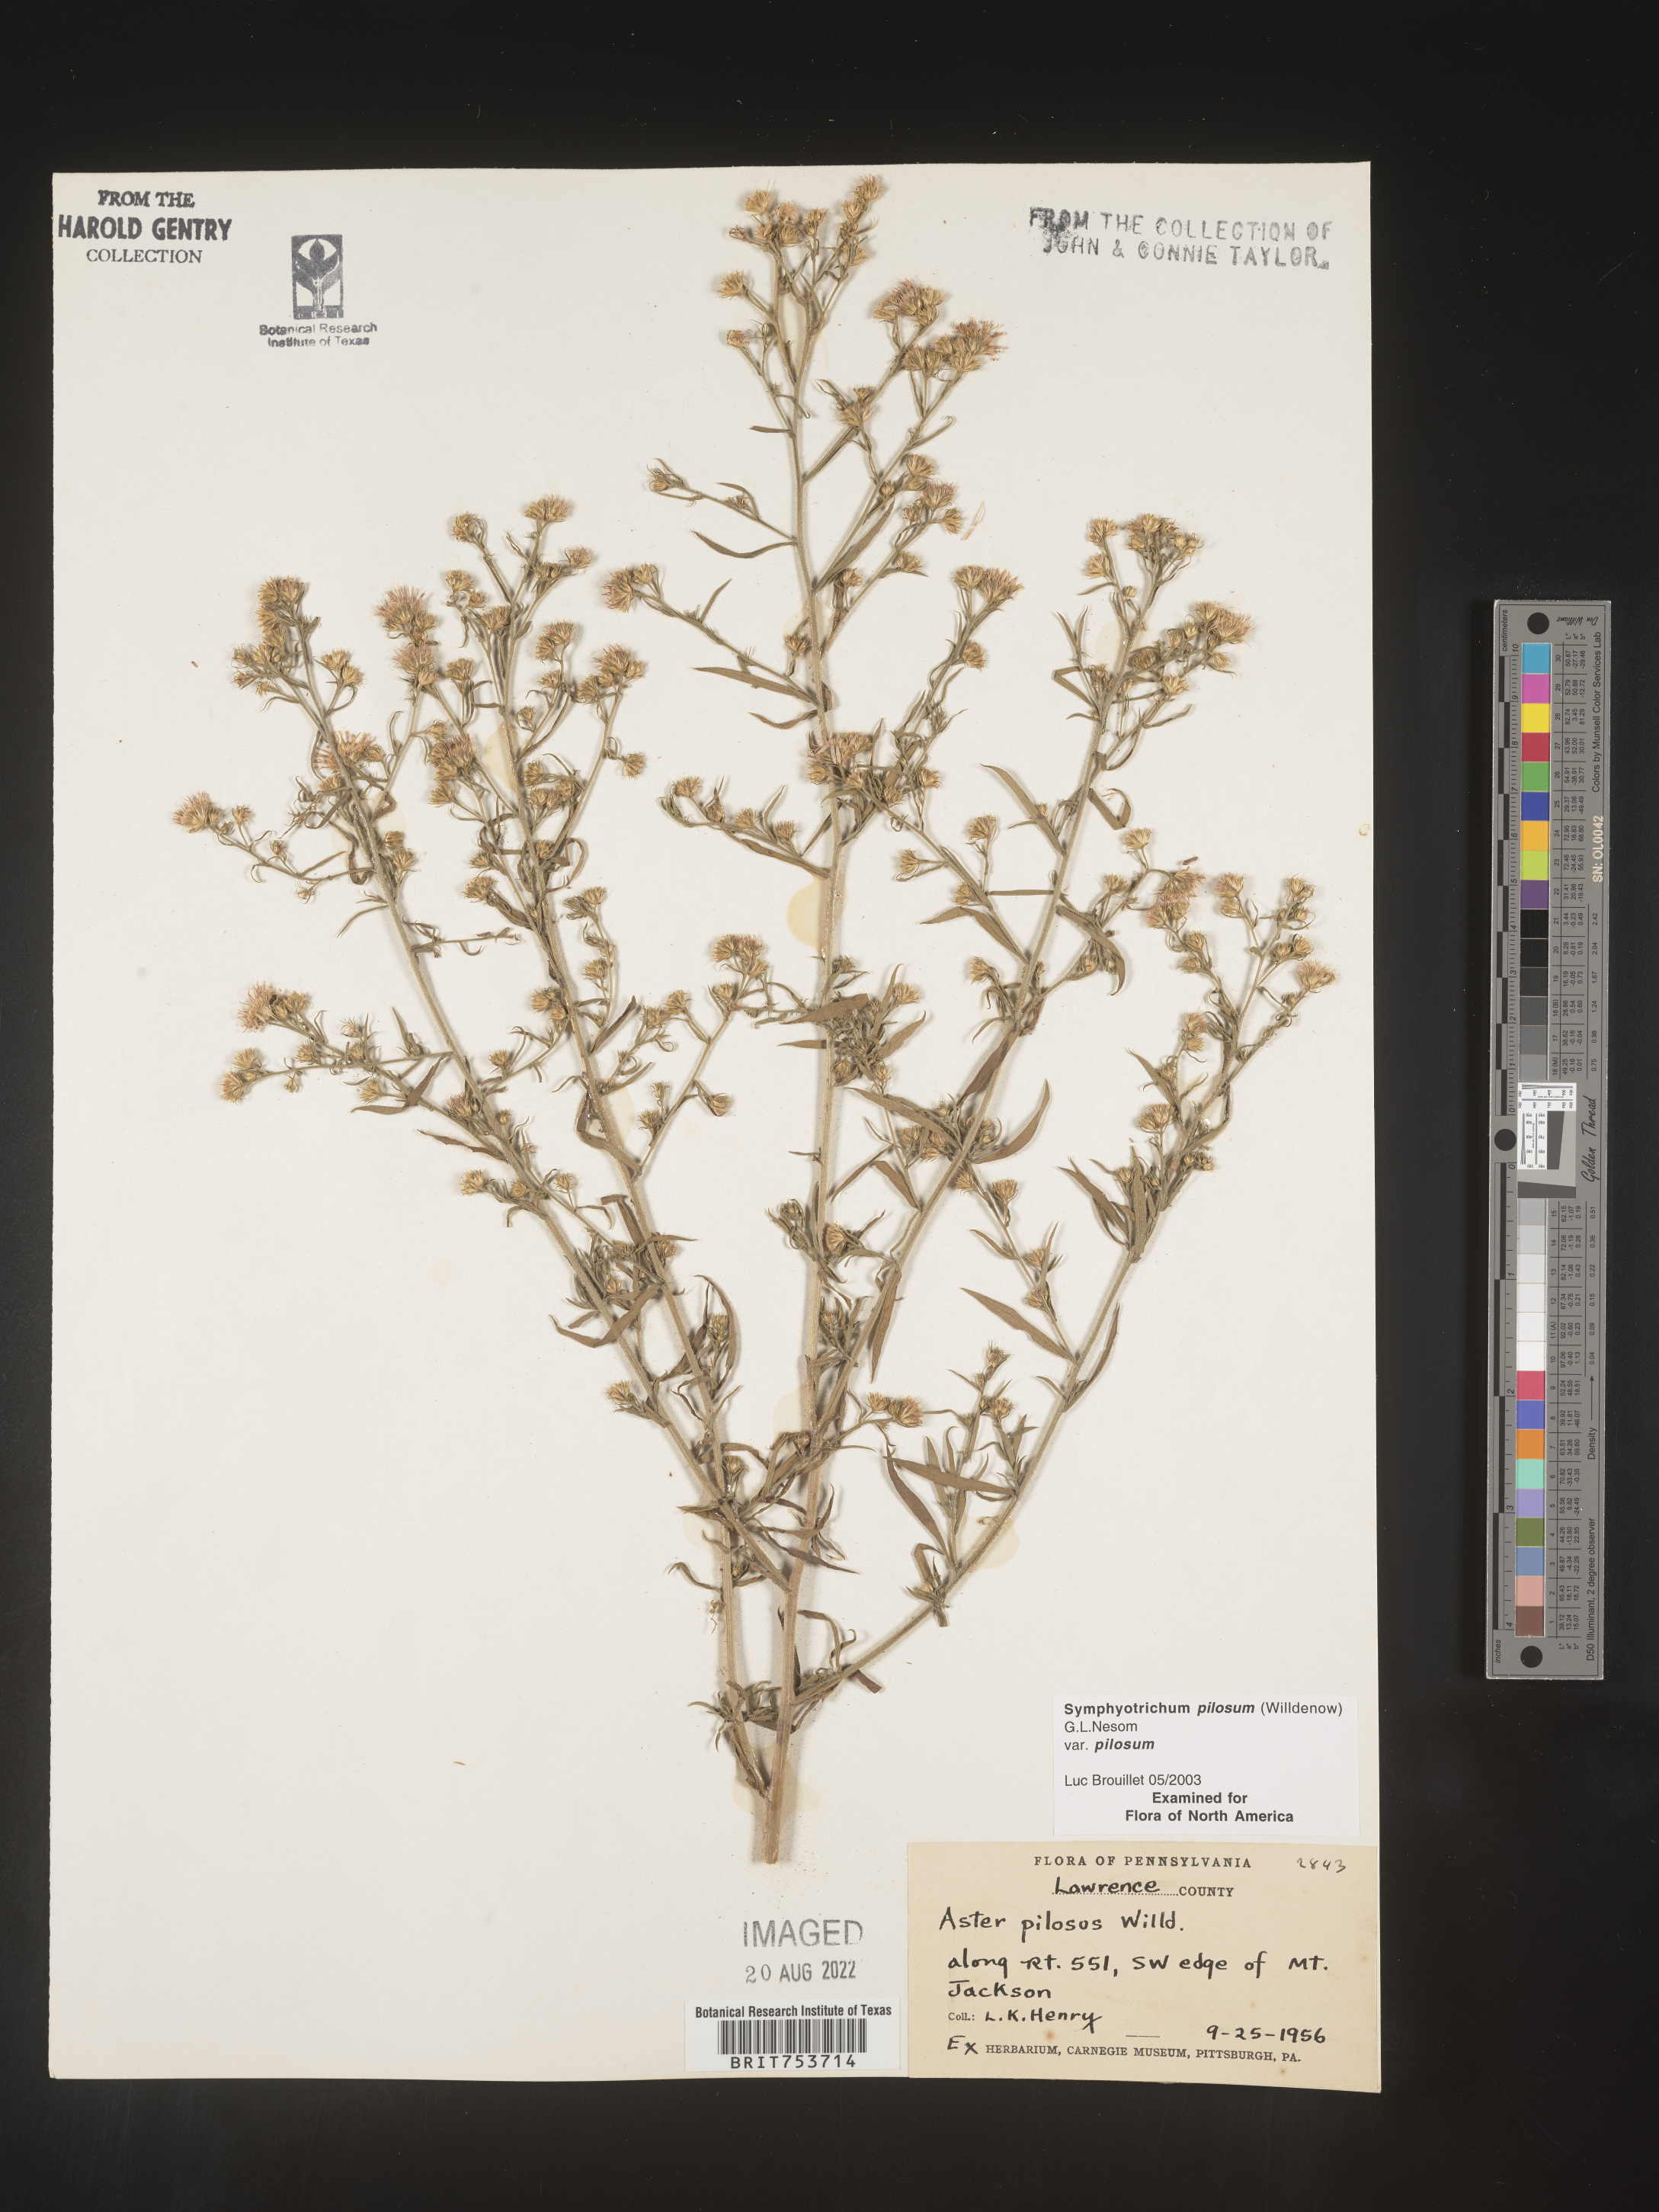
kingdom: Plantae
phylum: Tracheophyta
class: Magnoliopsida
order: Asterales
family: Asteraceae
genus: Symphyotrichum
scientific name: Symphyotrichum pilosum
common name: Awl aster
